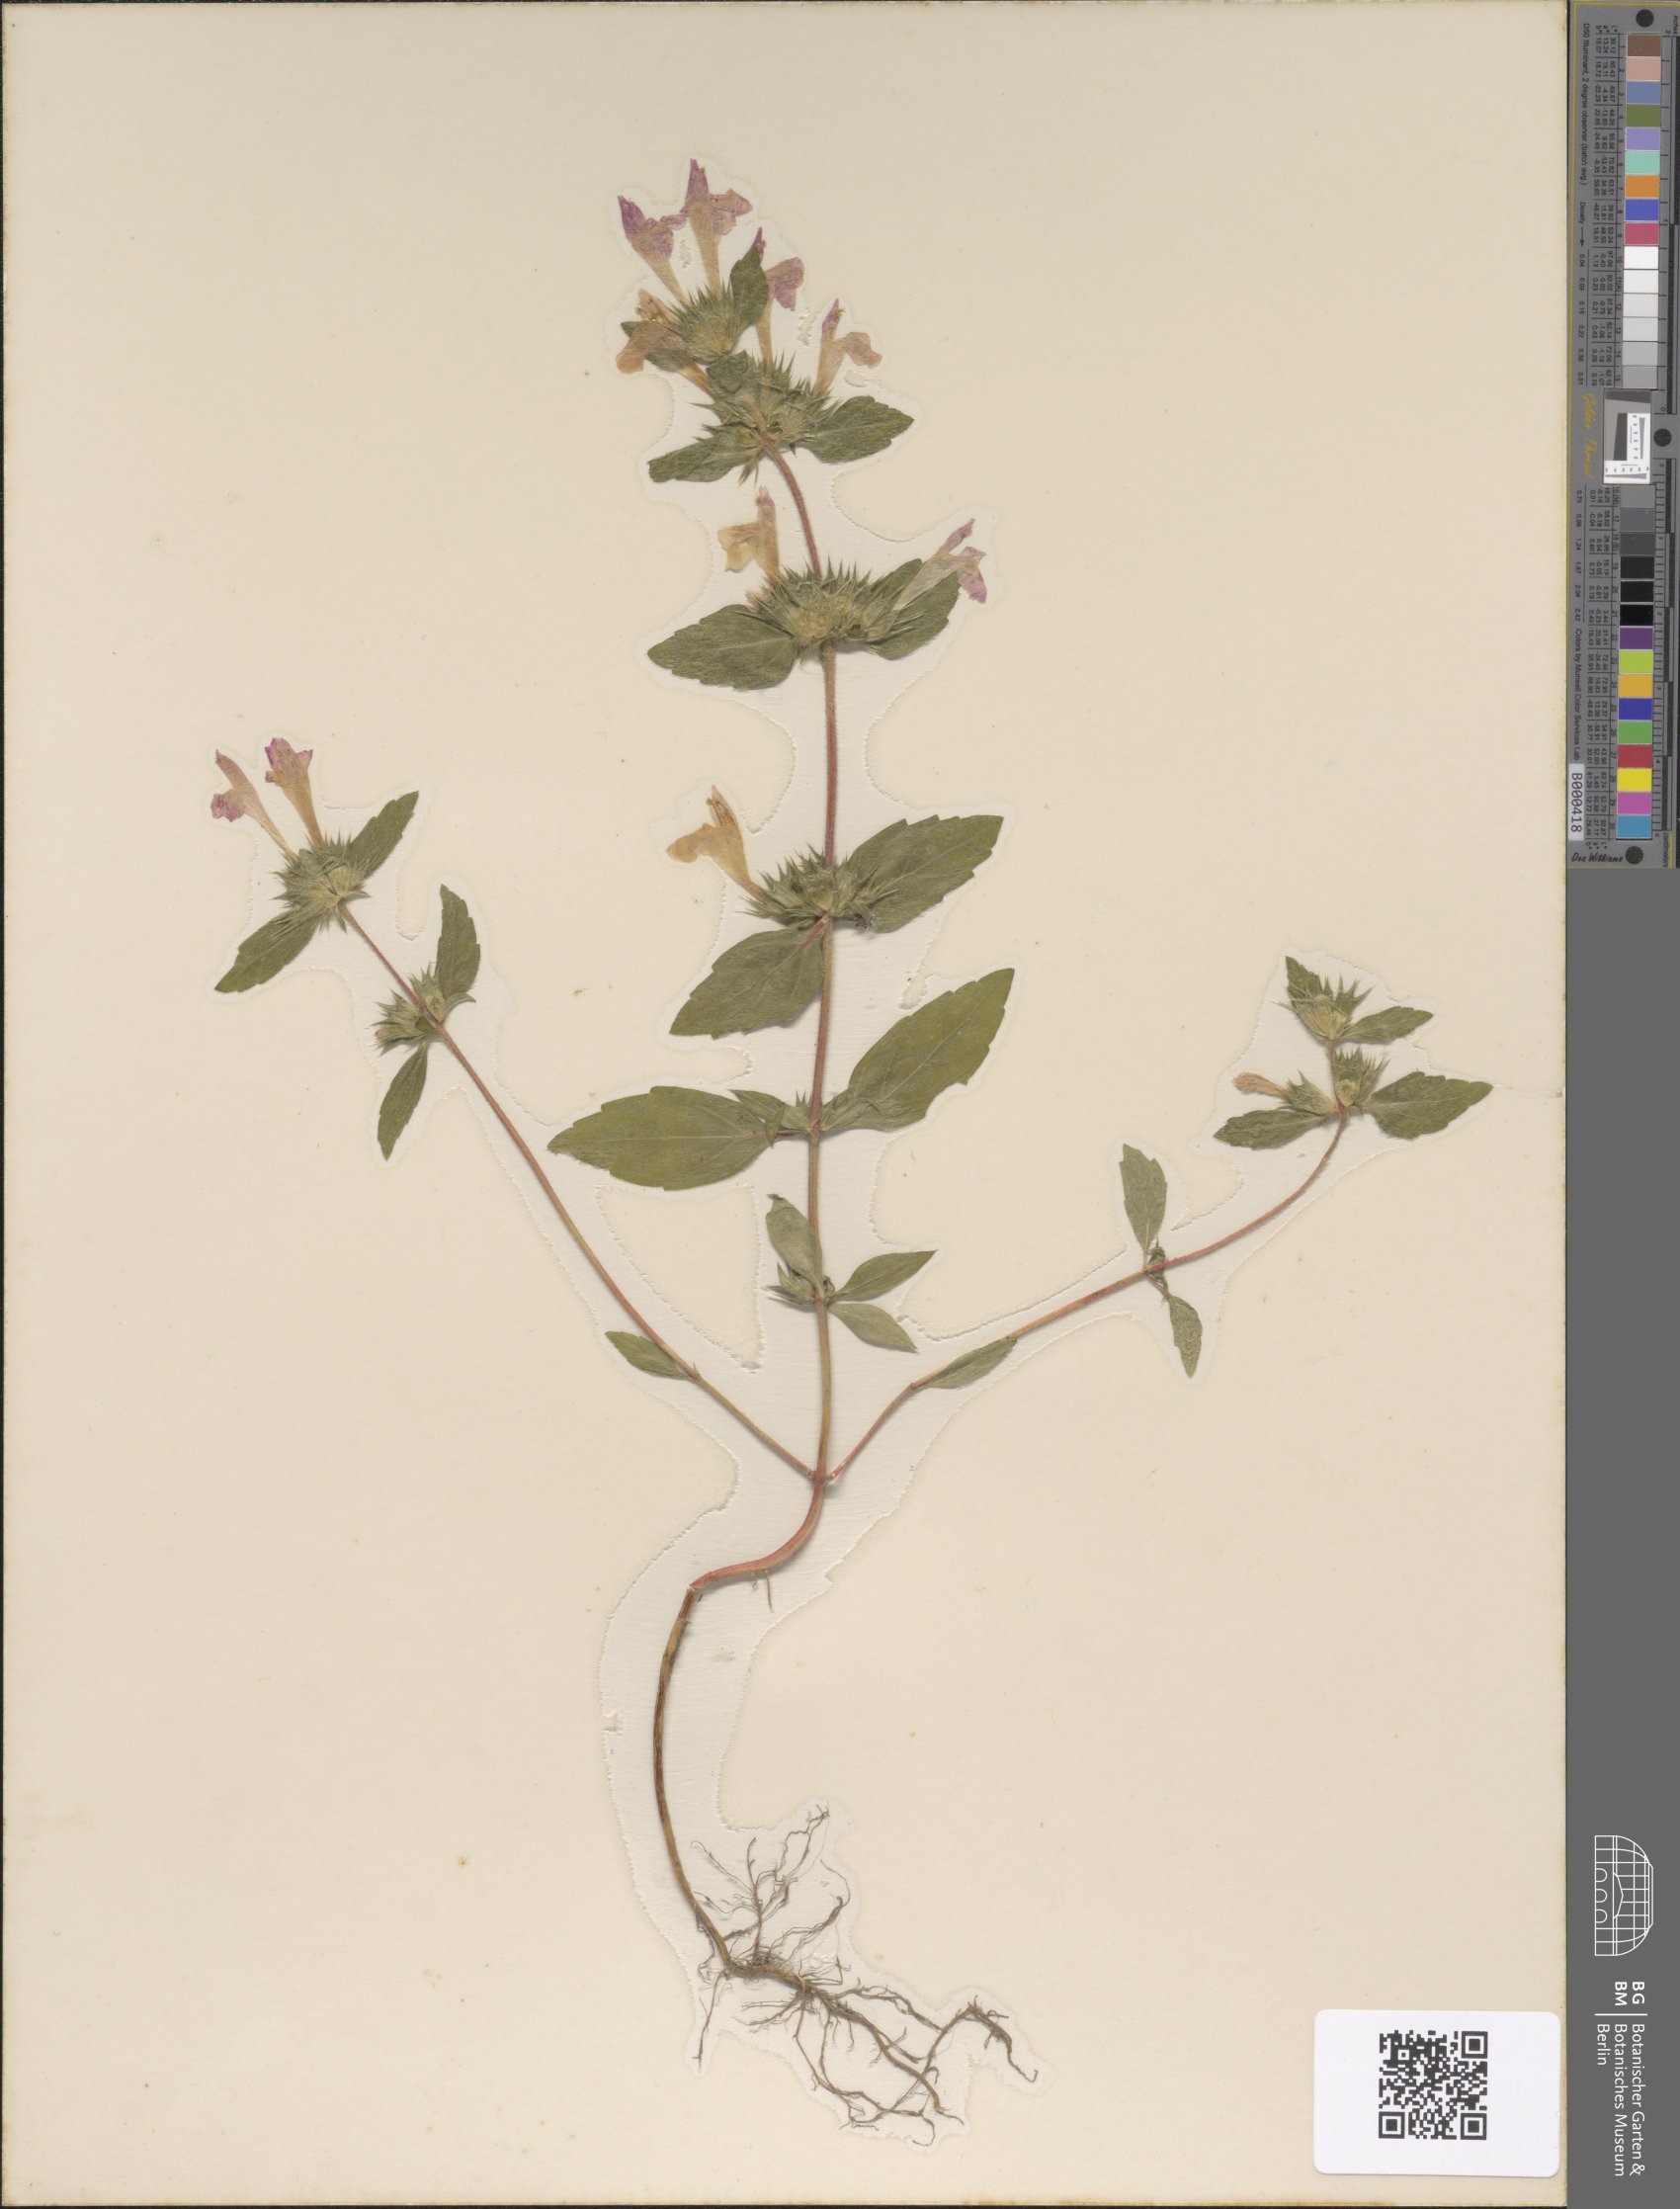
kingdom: Plantae
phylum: Tracheophyta
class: Magnoliopsida
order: Lamiales
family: Lamiaceae
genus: Galeopsis
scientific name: Galeopsis ladanum
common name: Broad-leaved hemp-nettle
